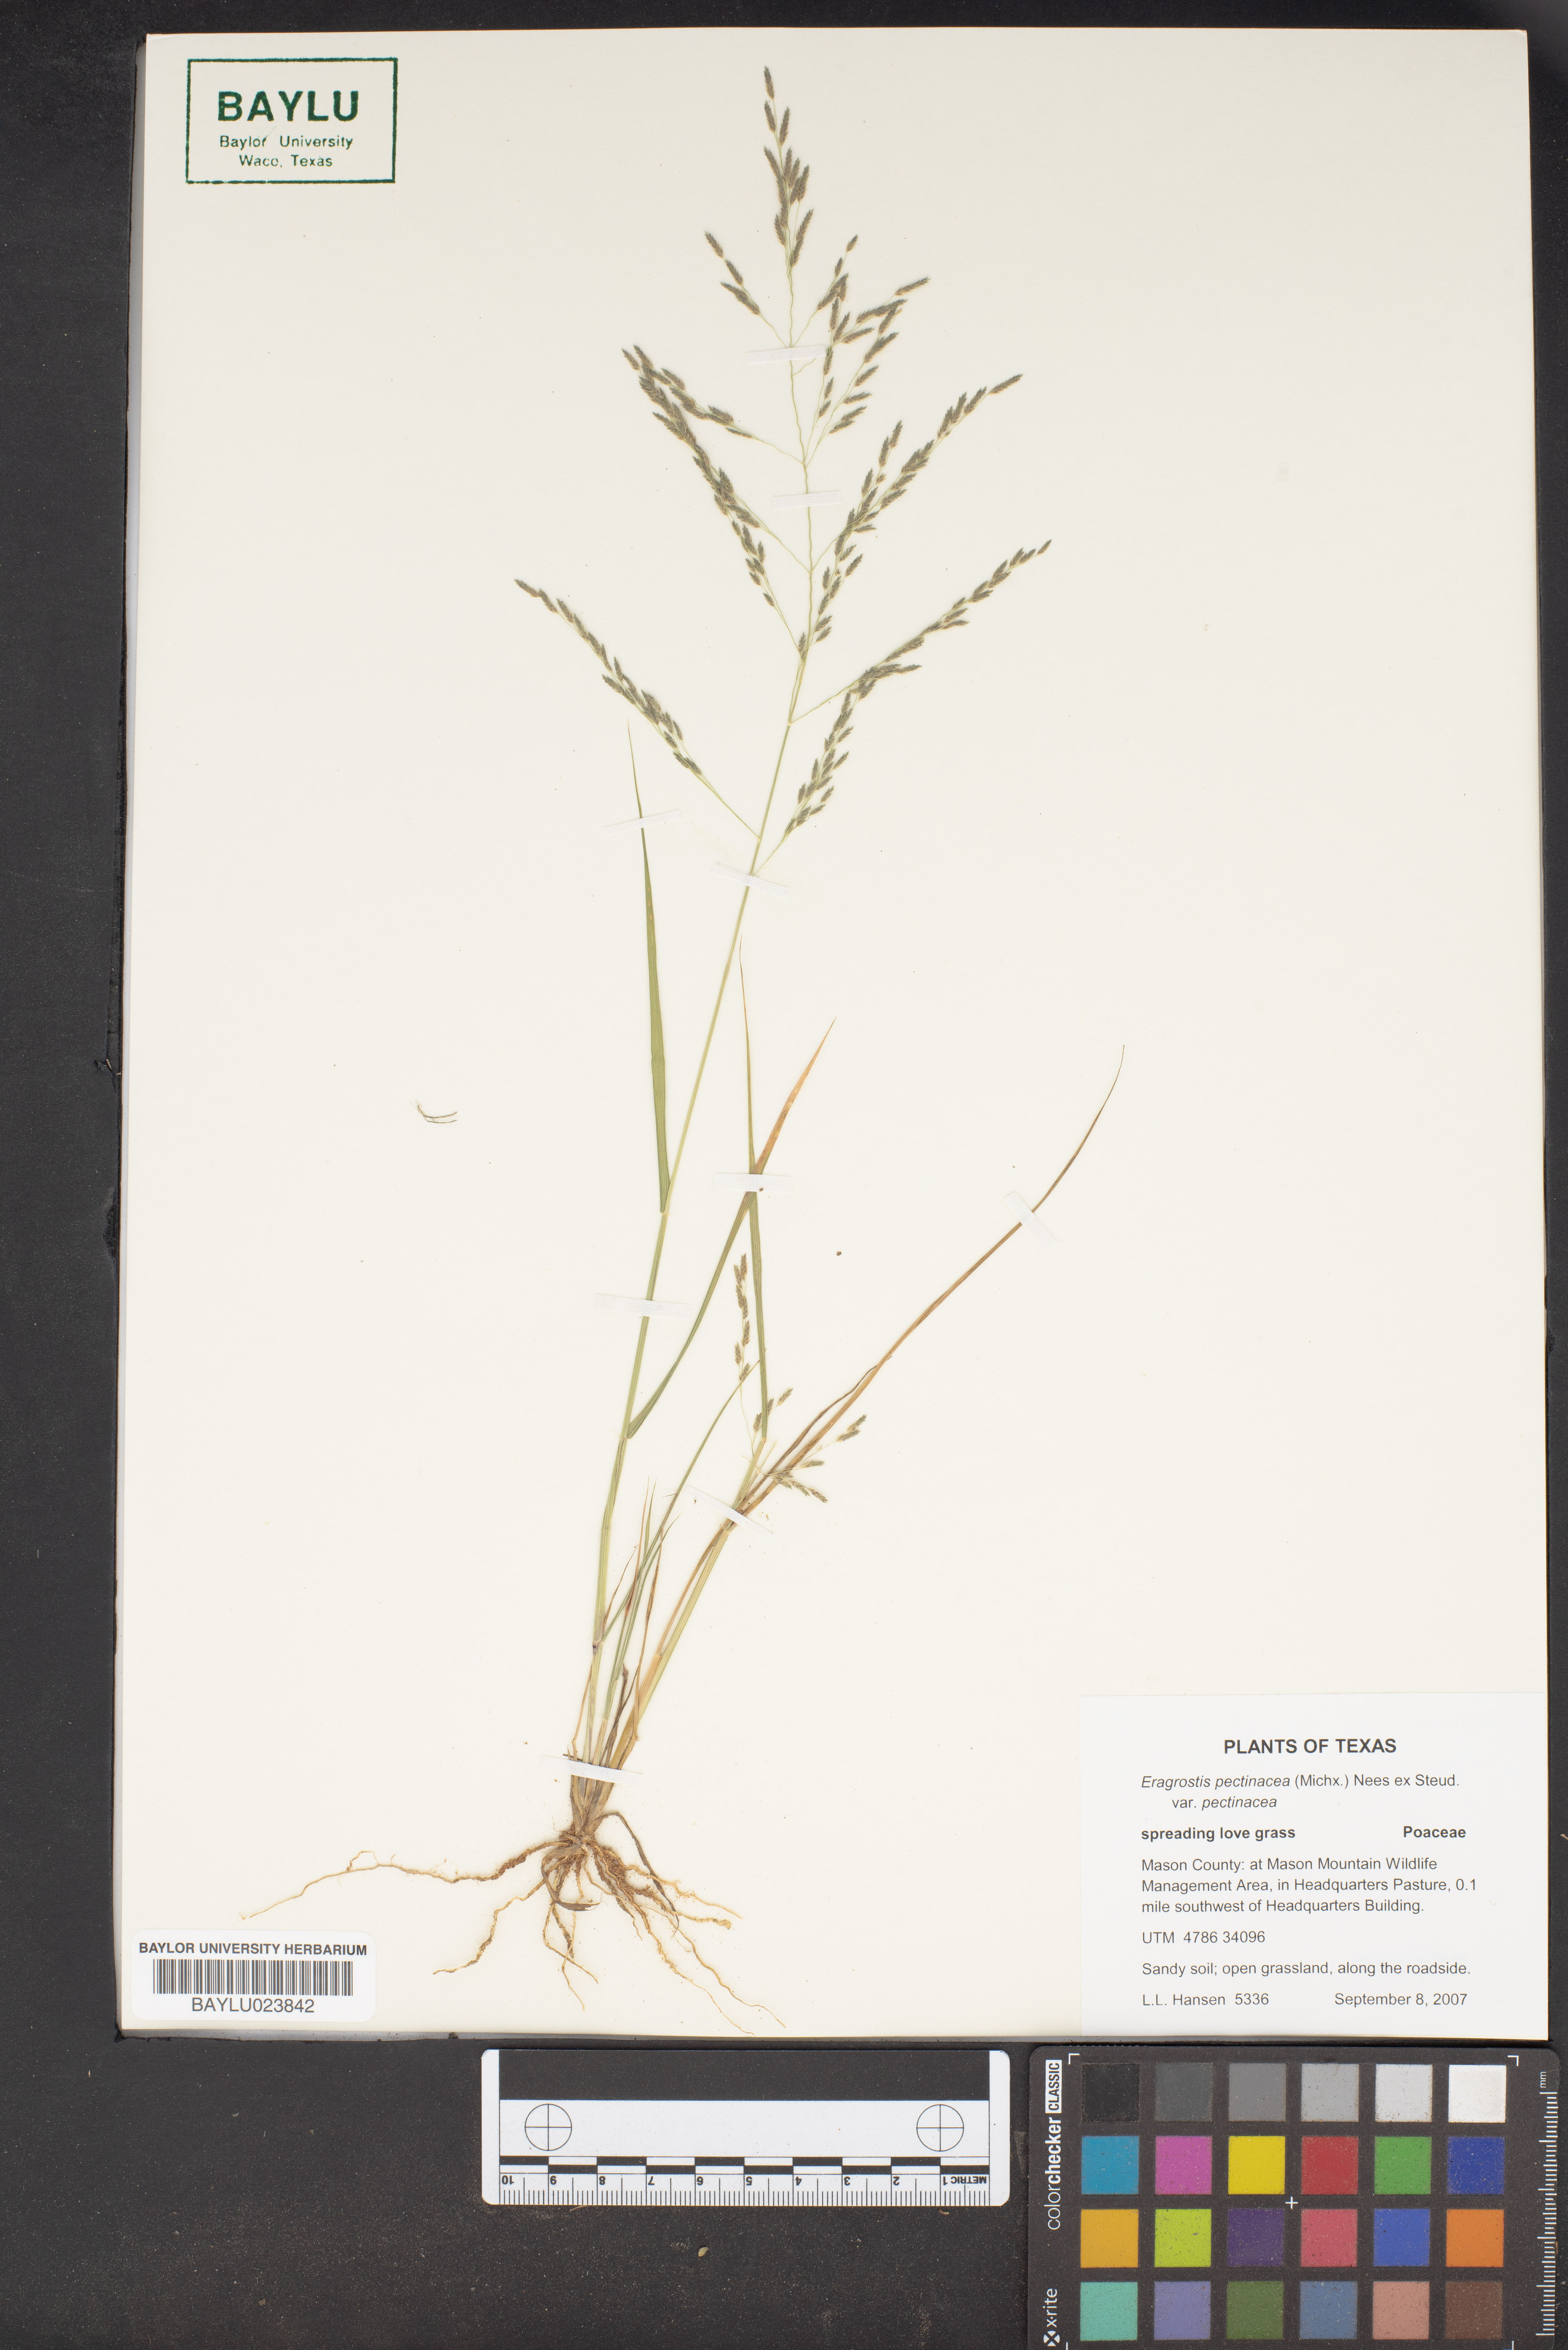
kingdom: Plantae
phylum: Tracheophyta
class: Liliopsida
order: Poales
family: Poaceae
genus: Eragrostis
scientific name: Eragrostis pectinacea
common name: Tufted lovegrass
